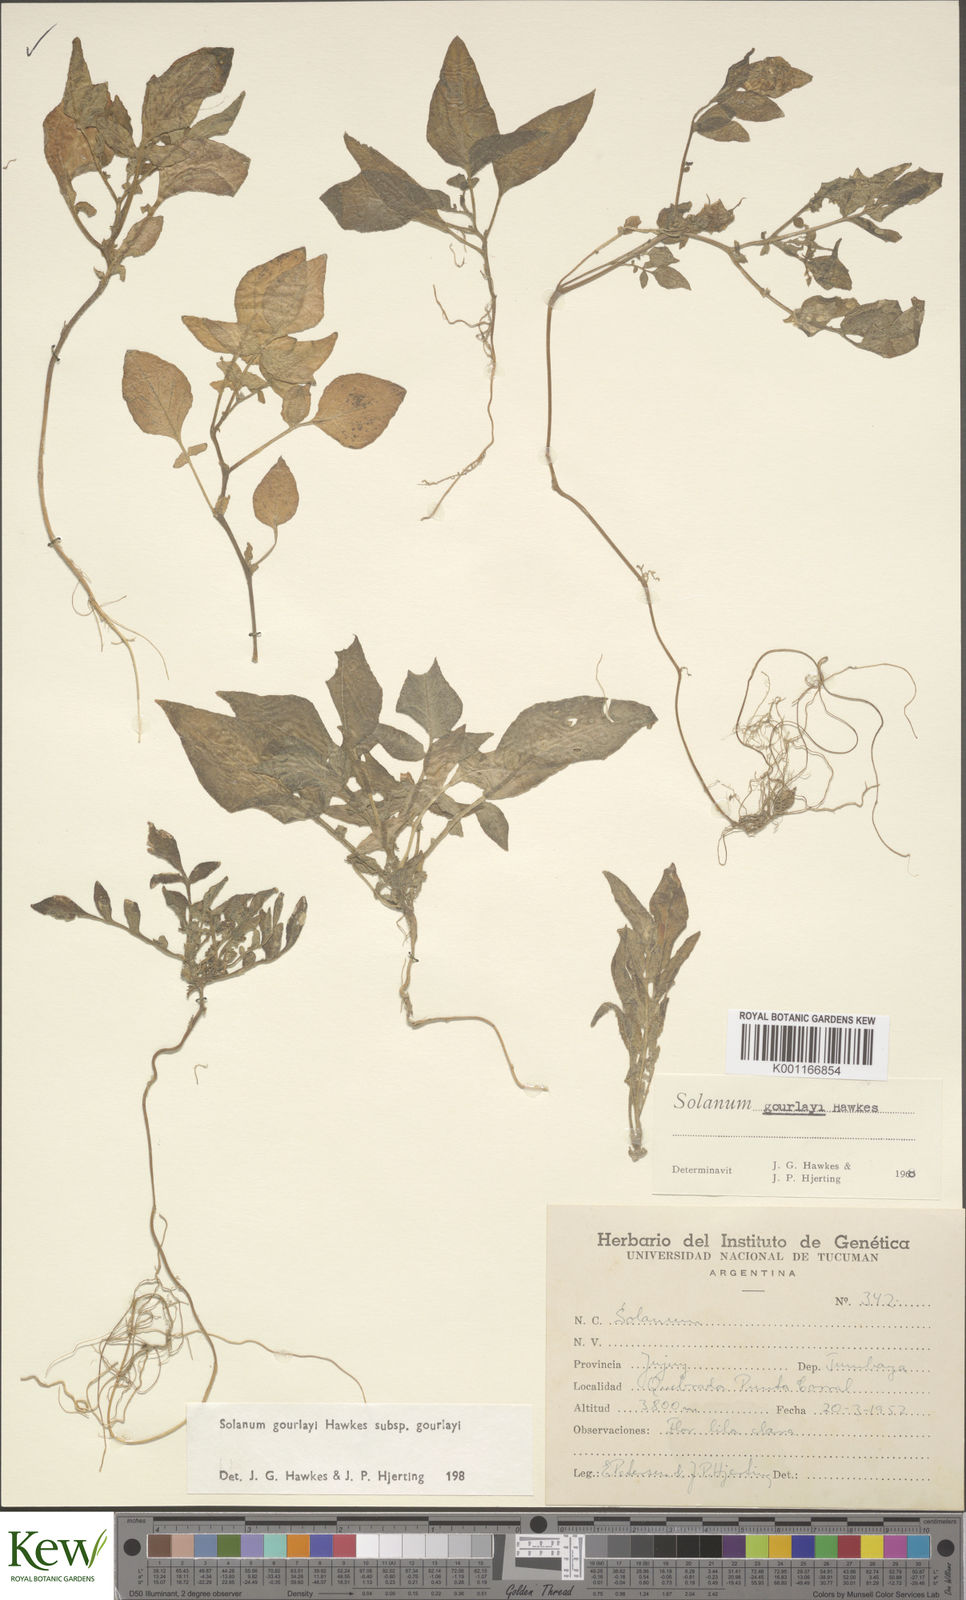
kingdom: Plantae
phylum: Tracheophyta
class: Magnoliopsida
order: Solanales
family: Solanaceae
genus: Solanum
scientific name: Solanum brevicaule
